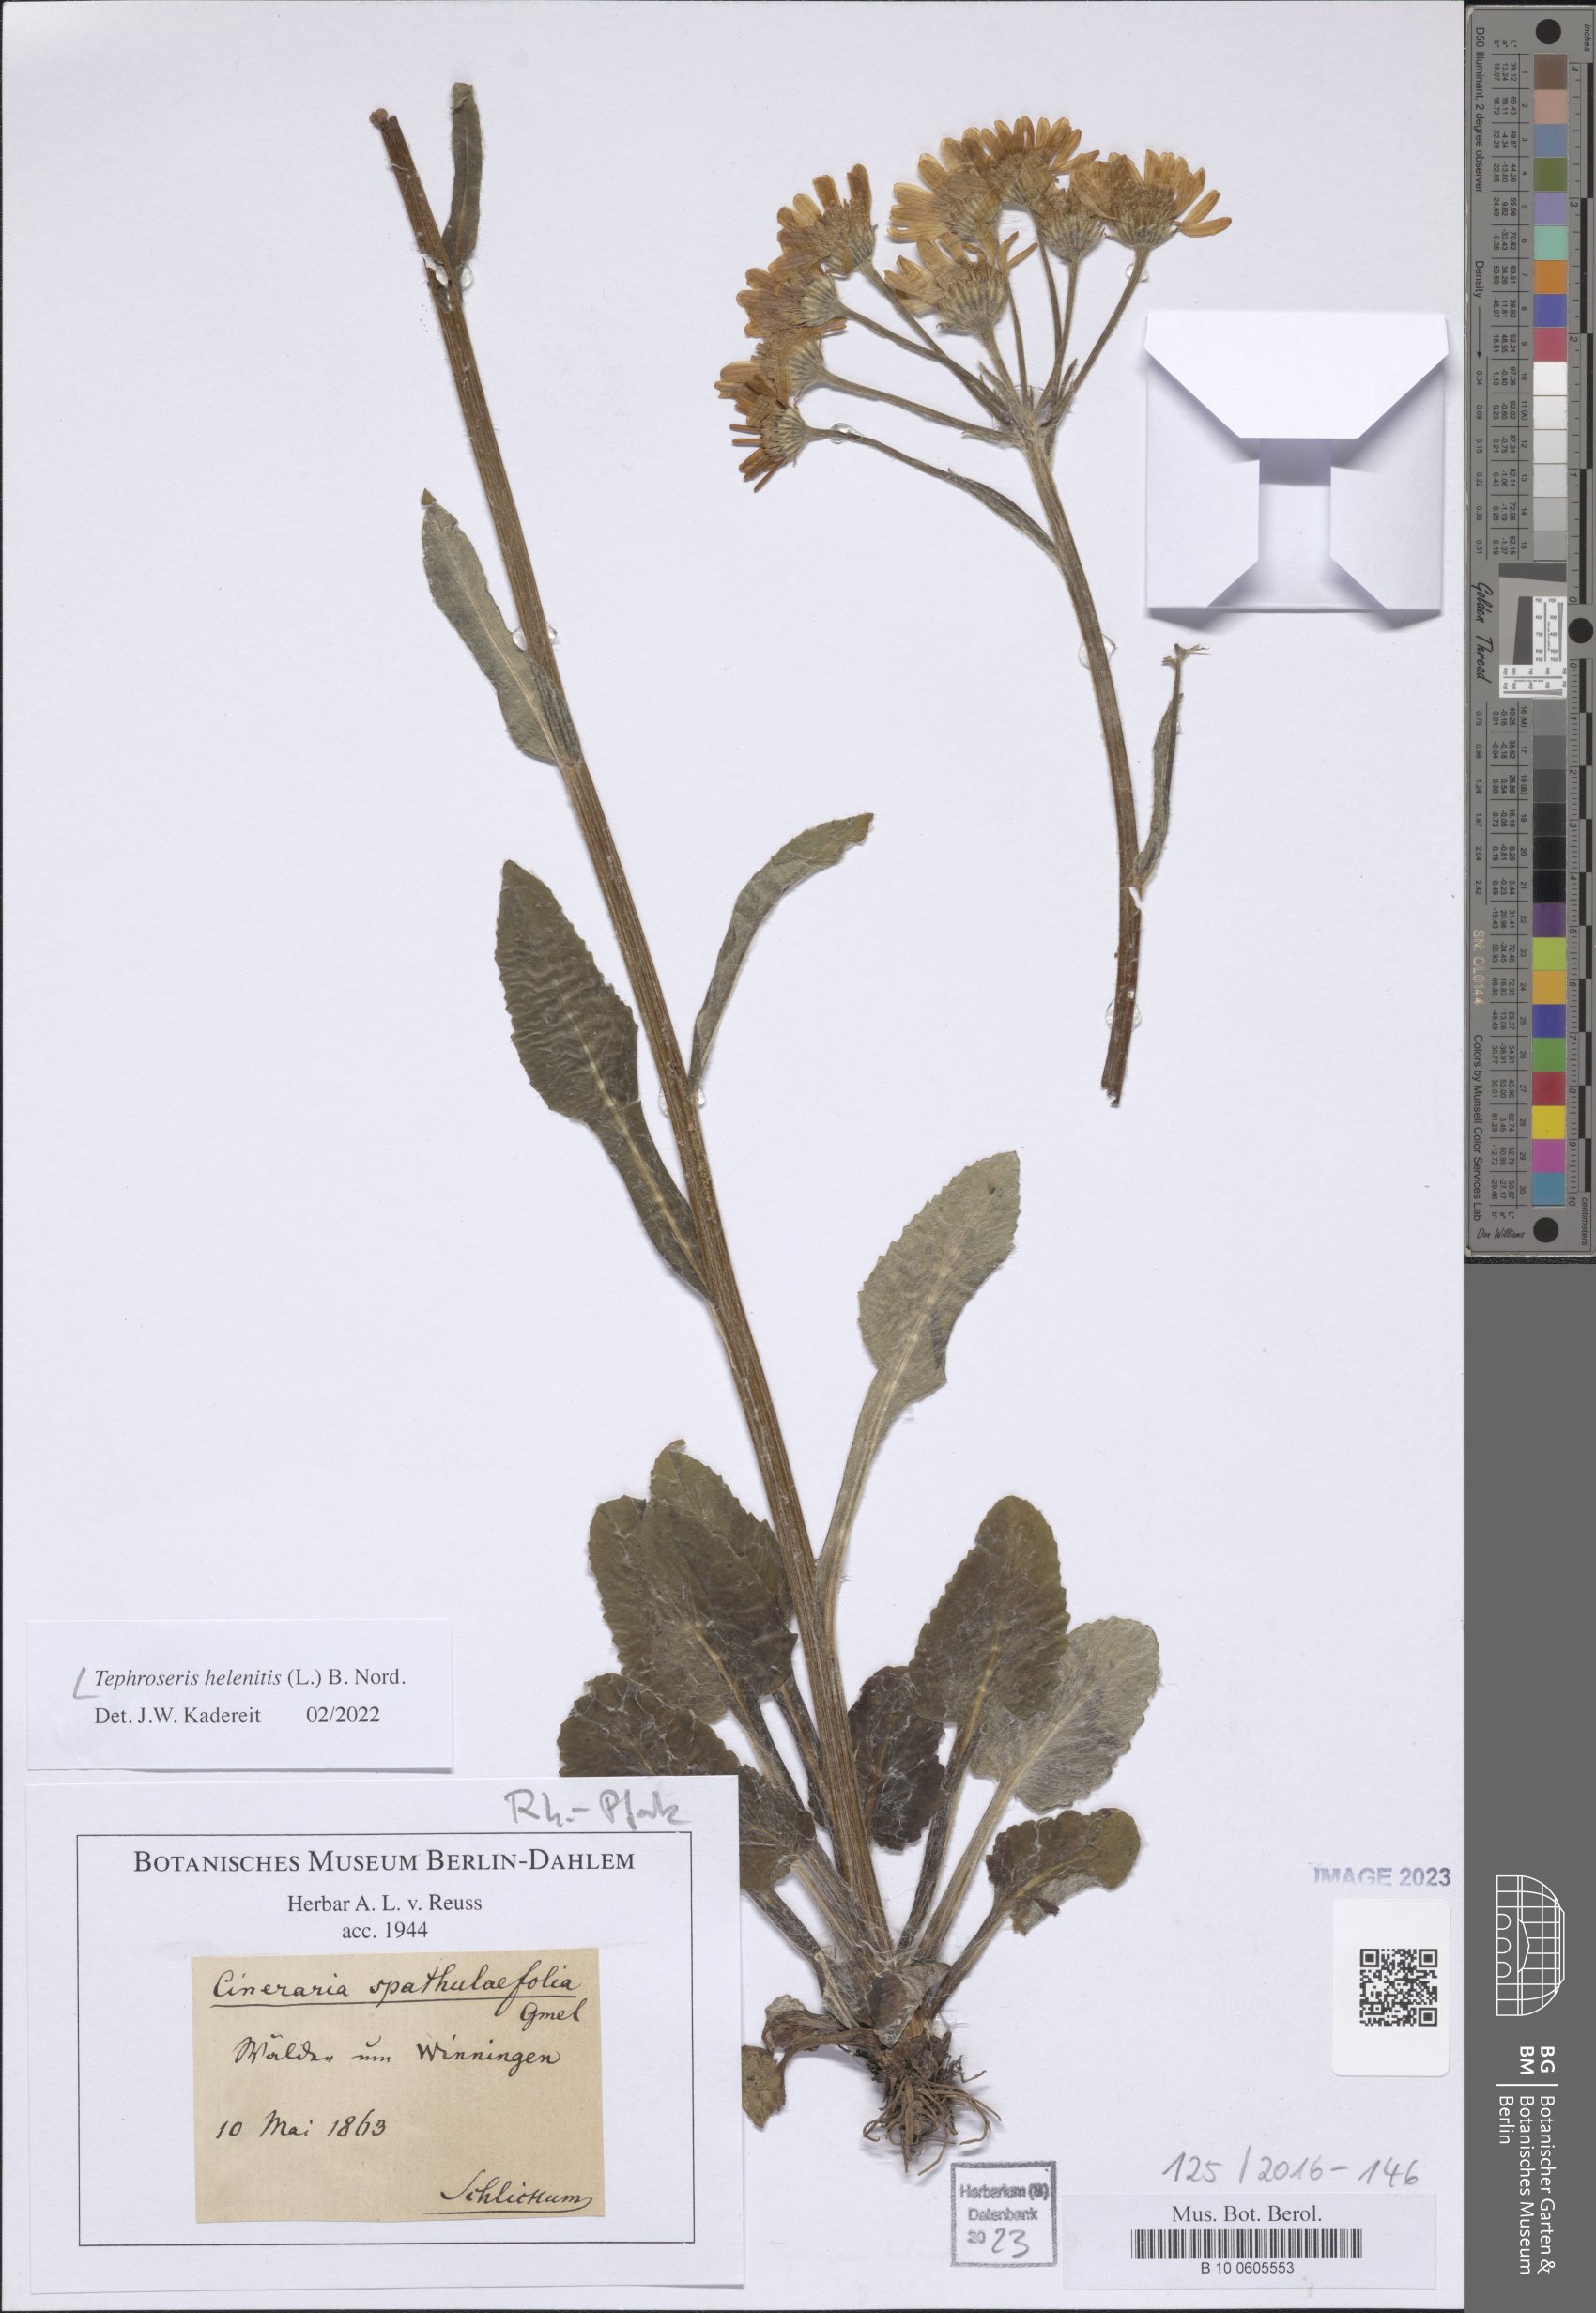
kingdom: Plantae
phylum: Tracheophyta
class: Magnoliopsida
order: Asterales
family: Asteraceae
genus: Tephroseris
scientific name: Tephroseris helenitis
